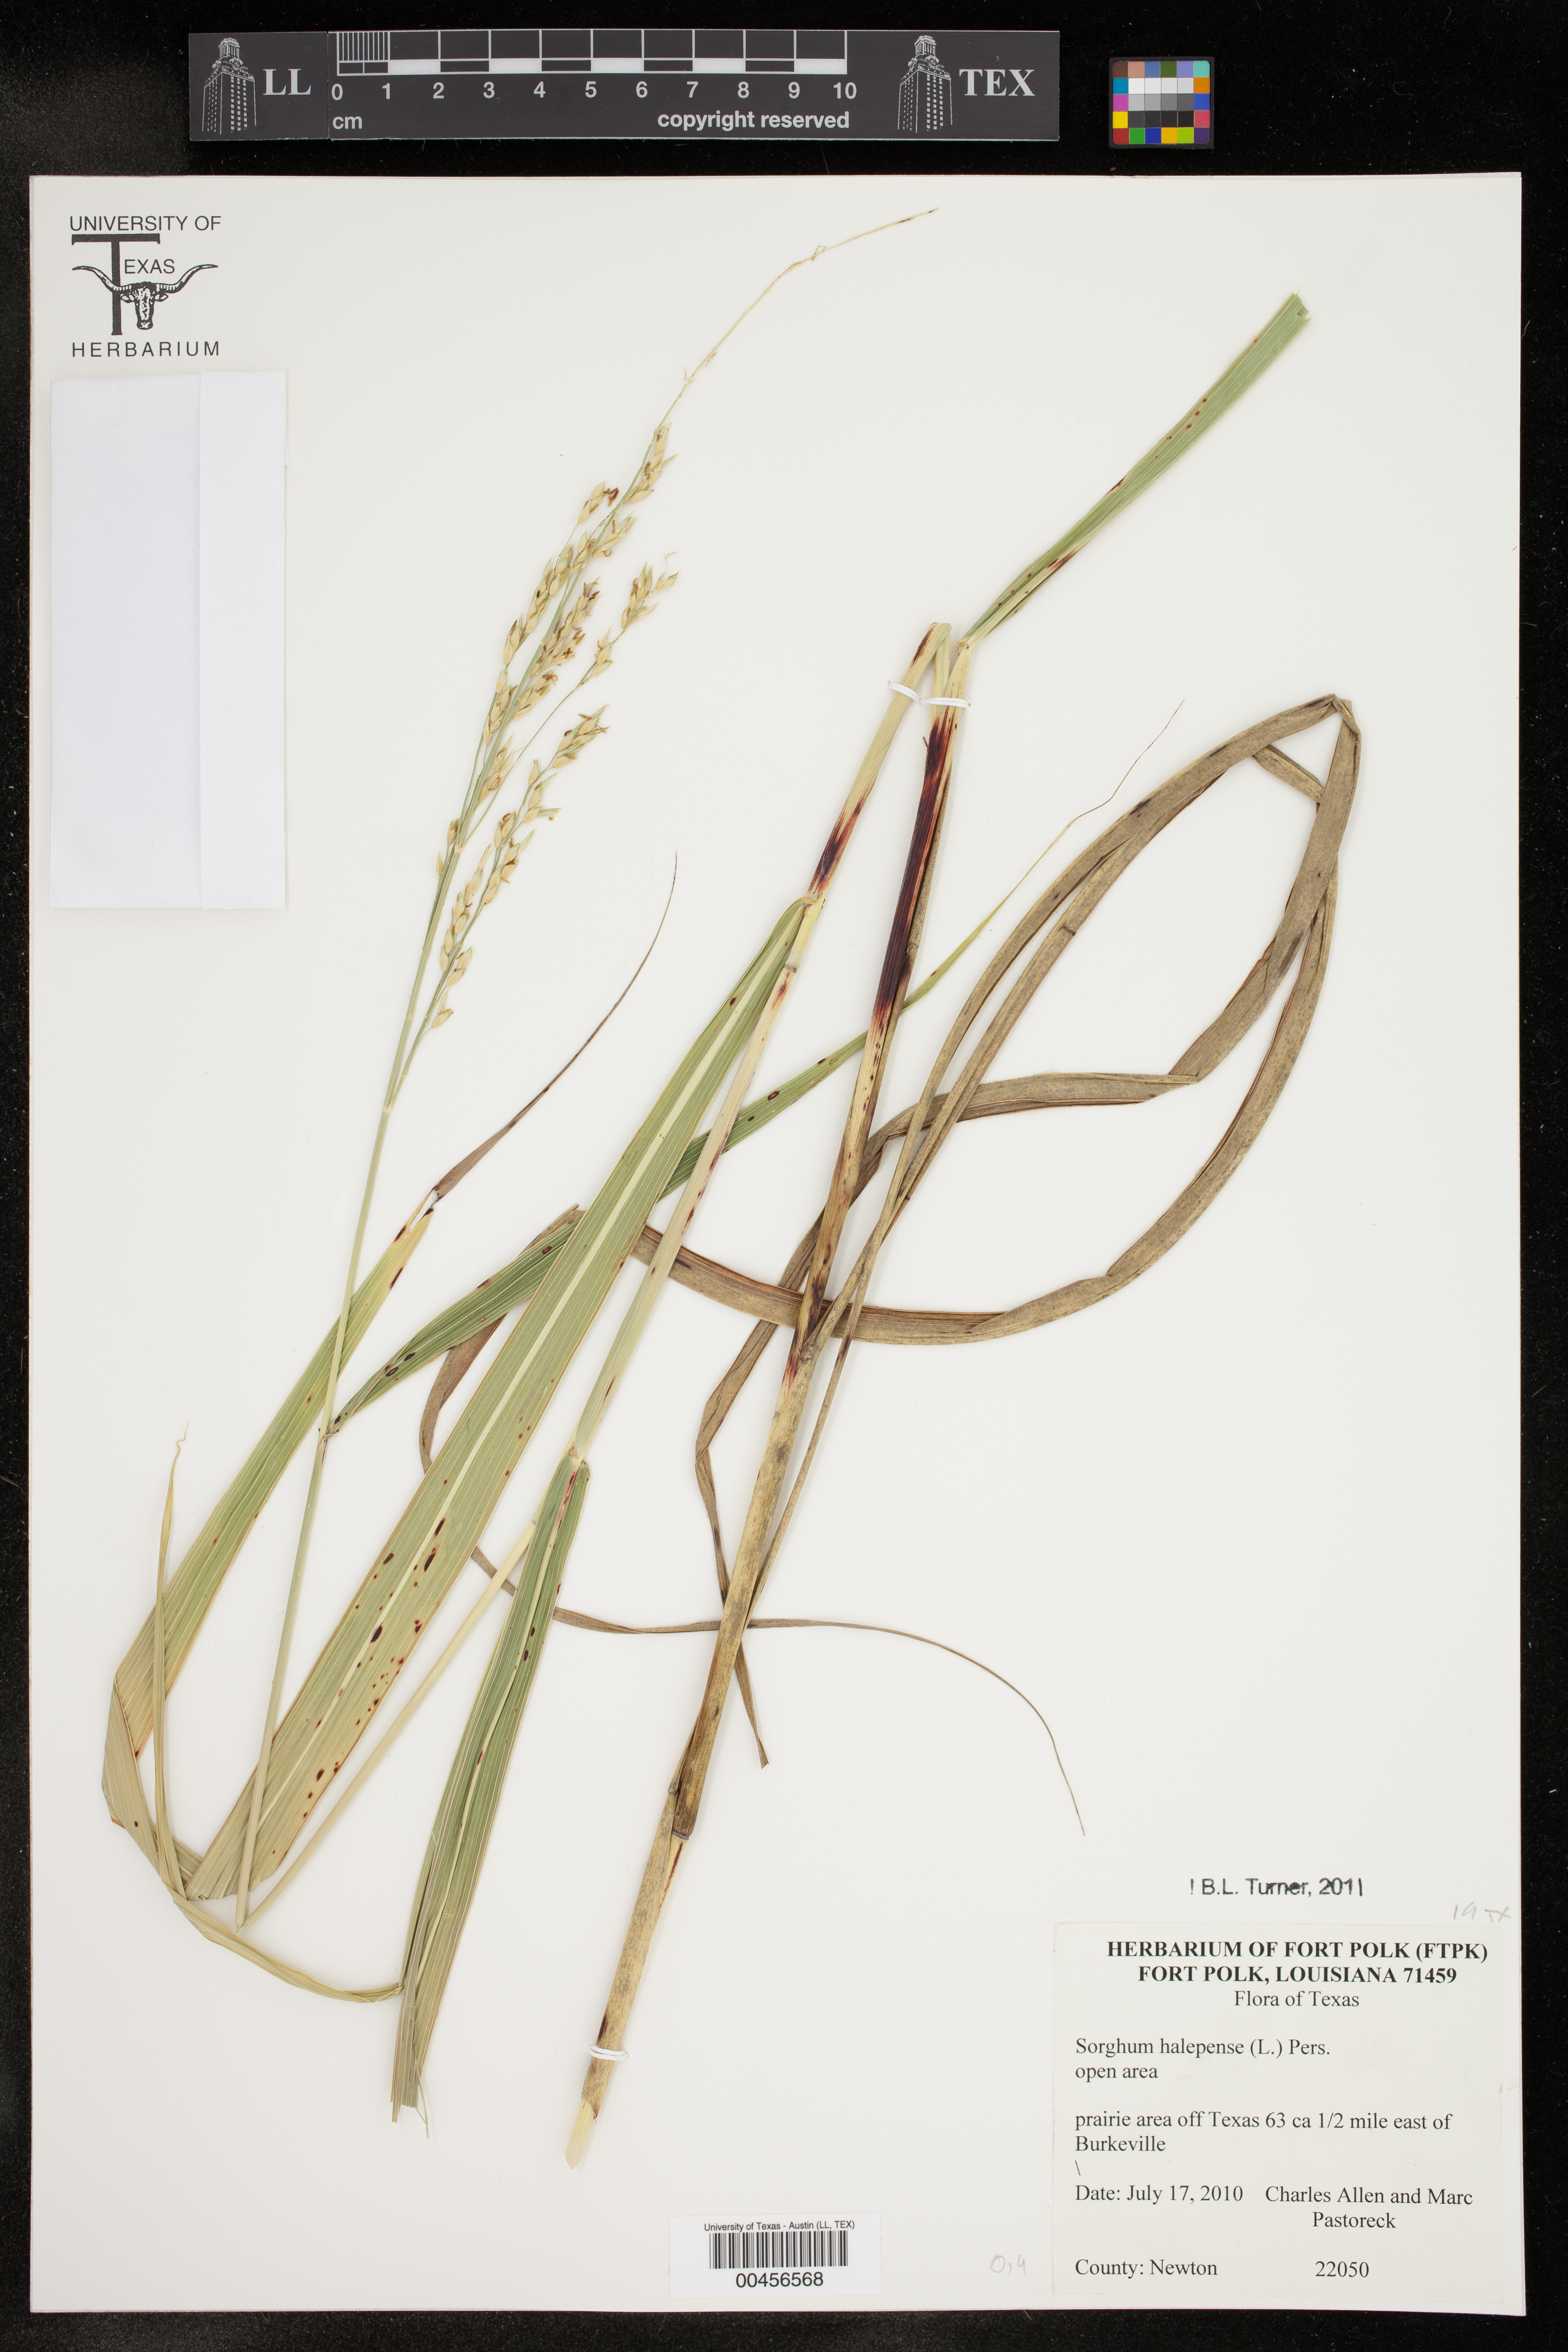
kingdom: Plantae
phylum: Tracheophyta
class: Liliopsida
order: Poales
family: Poaceae
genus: Sorghum
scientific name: Sorghum halepense
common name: Johnson-grass
